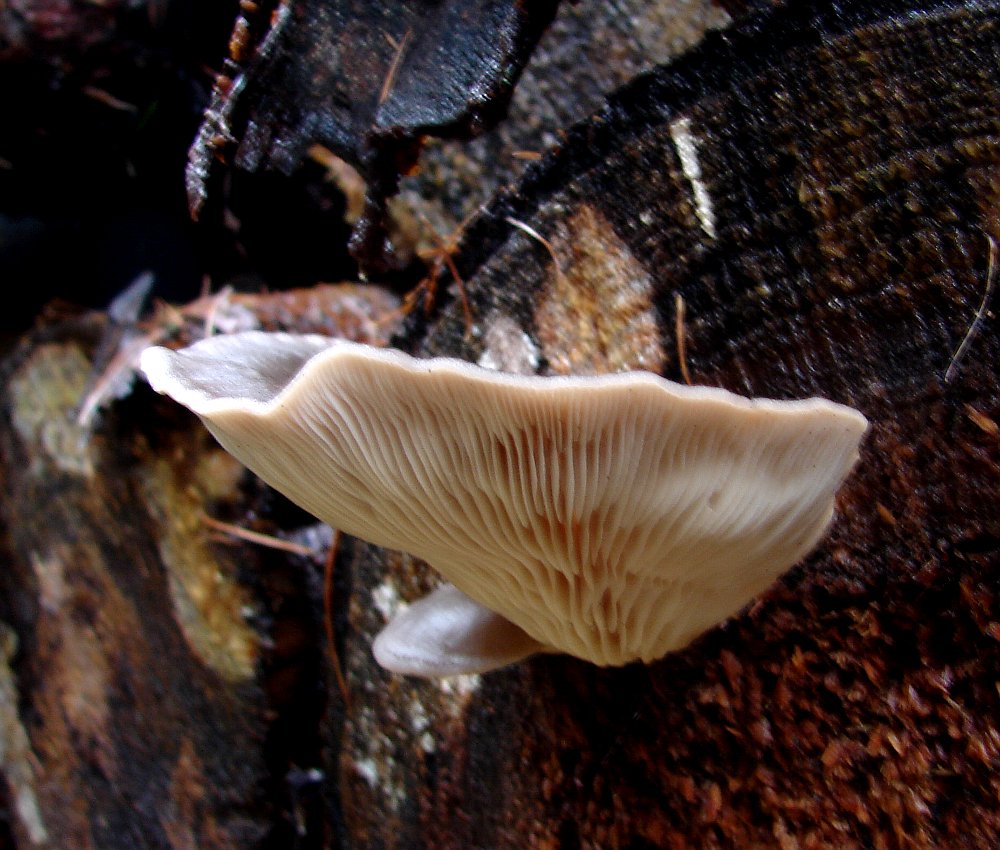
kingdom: Fungi
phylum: Basidiomycota
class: Agaricomycetes
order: Agaricales
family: Pleurotaceae
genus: Pleurotus
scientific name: Pleurotus ostreatus
